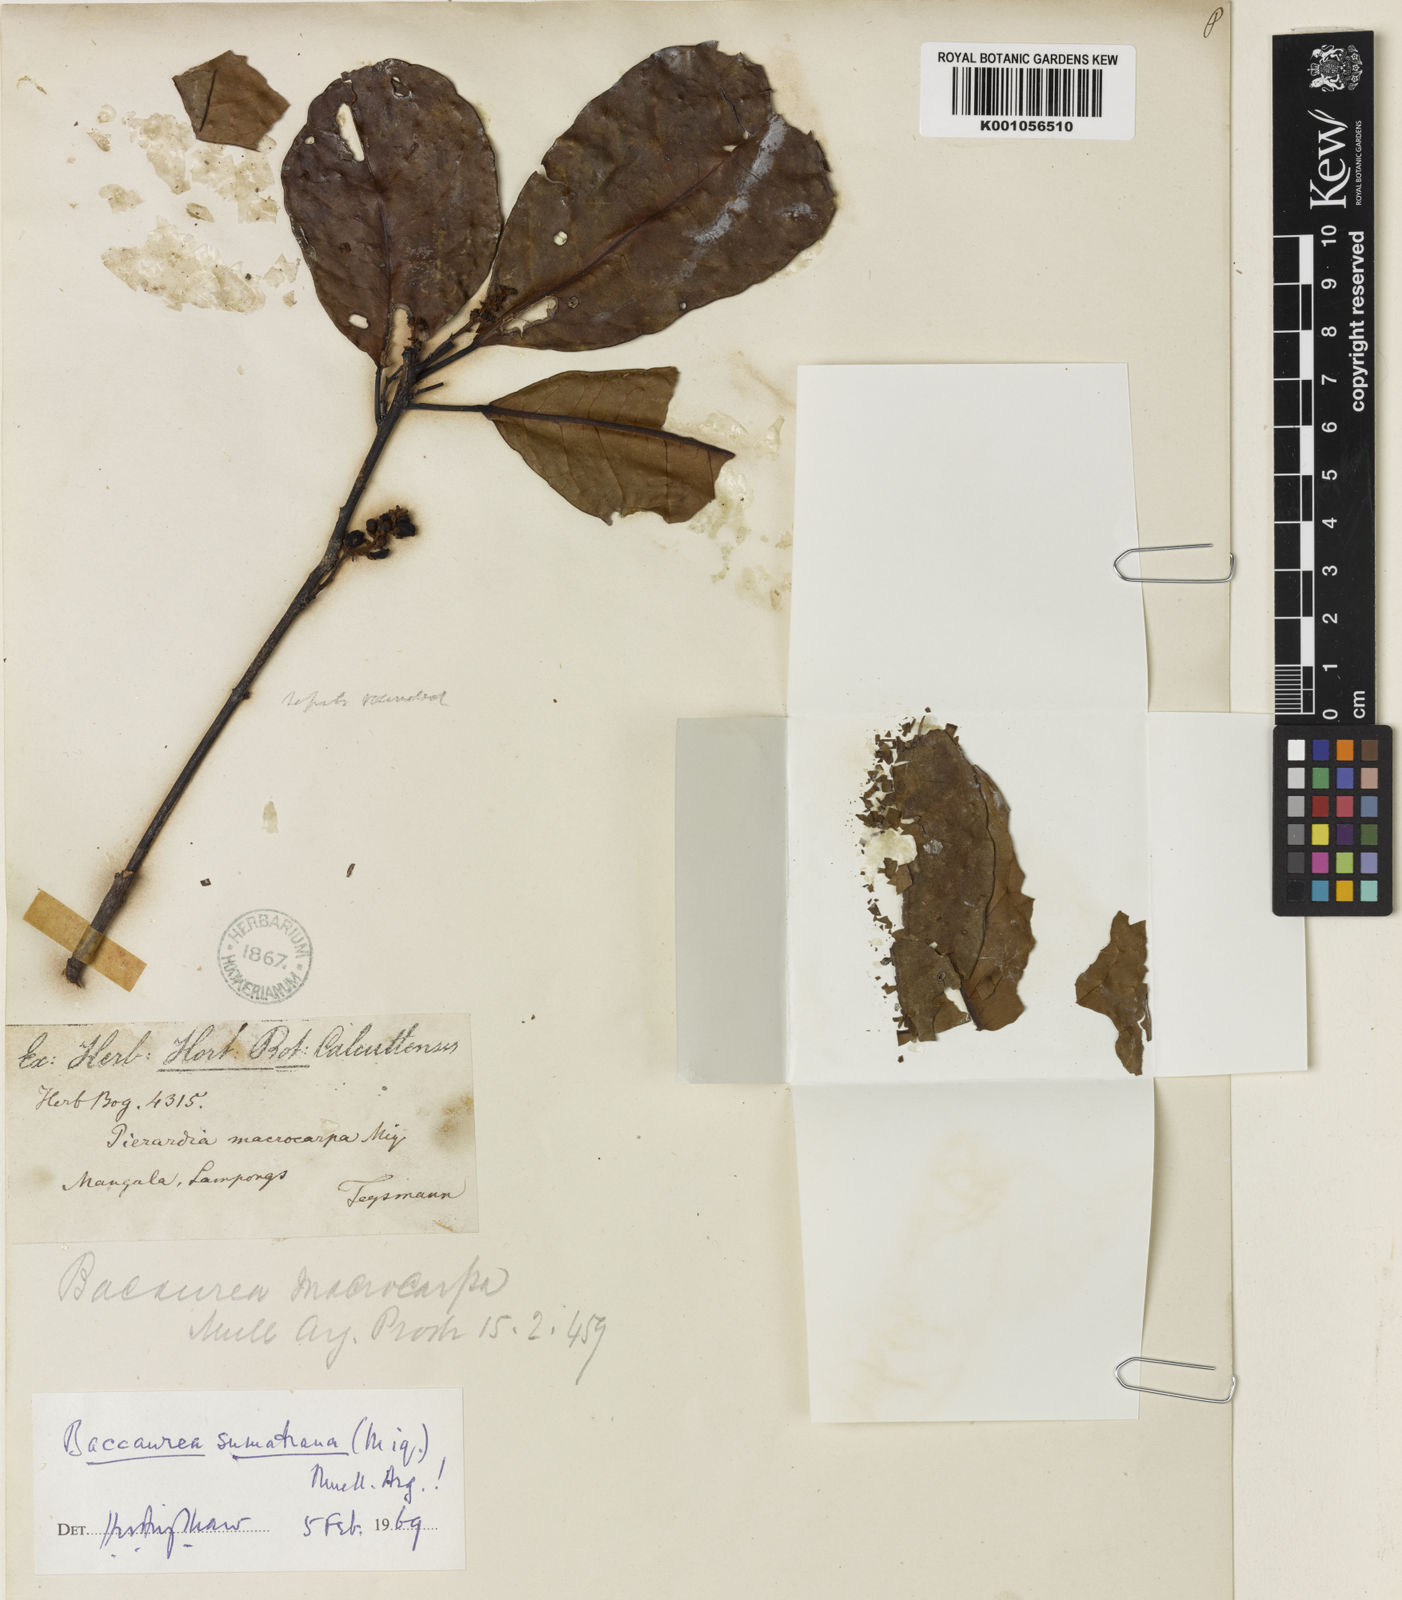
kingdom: Plantae
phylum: Tracheophyta
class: Magnoliopsida
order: Malpighiales
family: Phyllanthaceae
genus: Baccaurea
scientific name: Baccaurea
